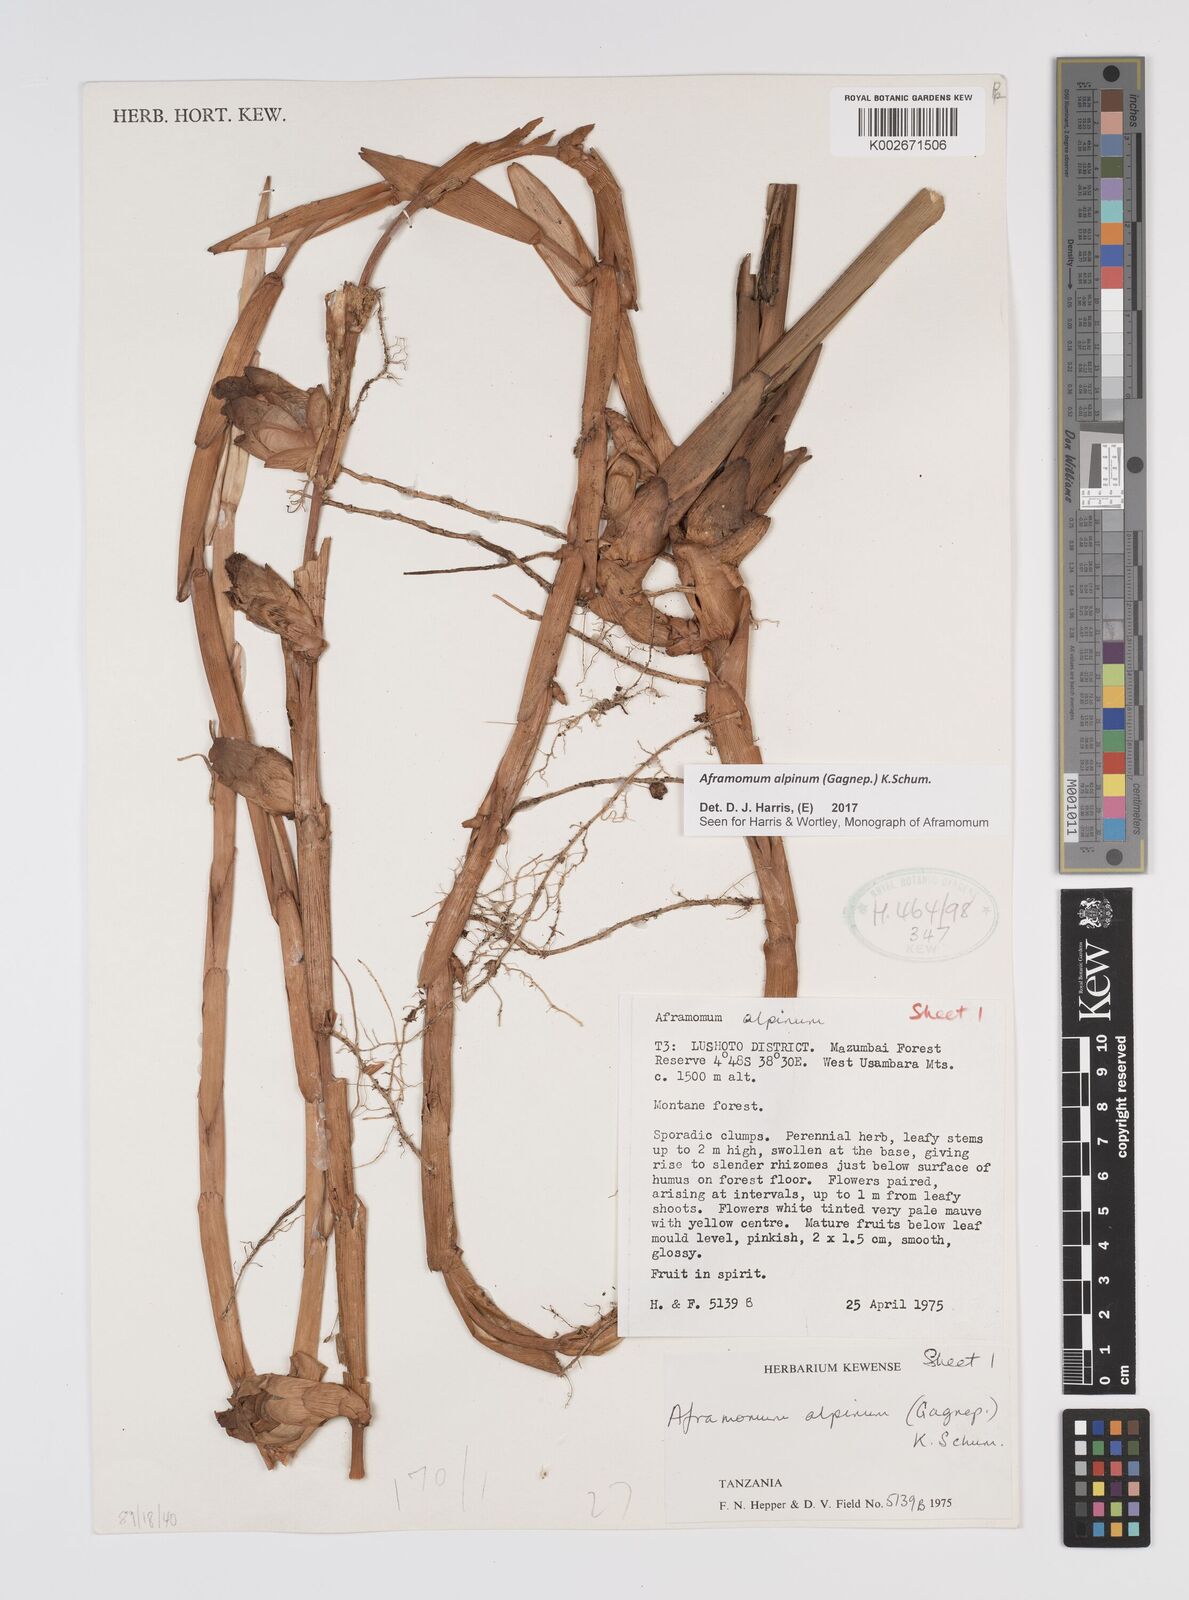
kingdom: Plantae
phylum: Tracheophyta
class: Liliopsida
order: Zingiberales
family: Zingiberaceae
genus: Aframomum
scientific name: Aframomum alpinum
